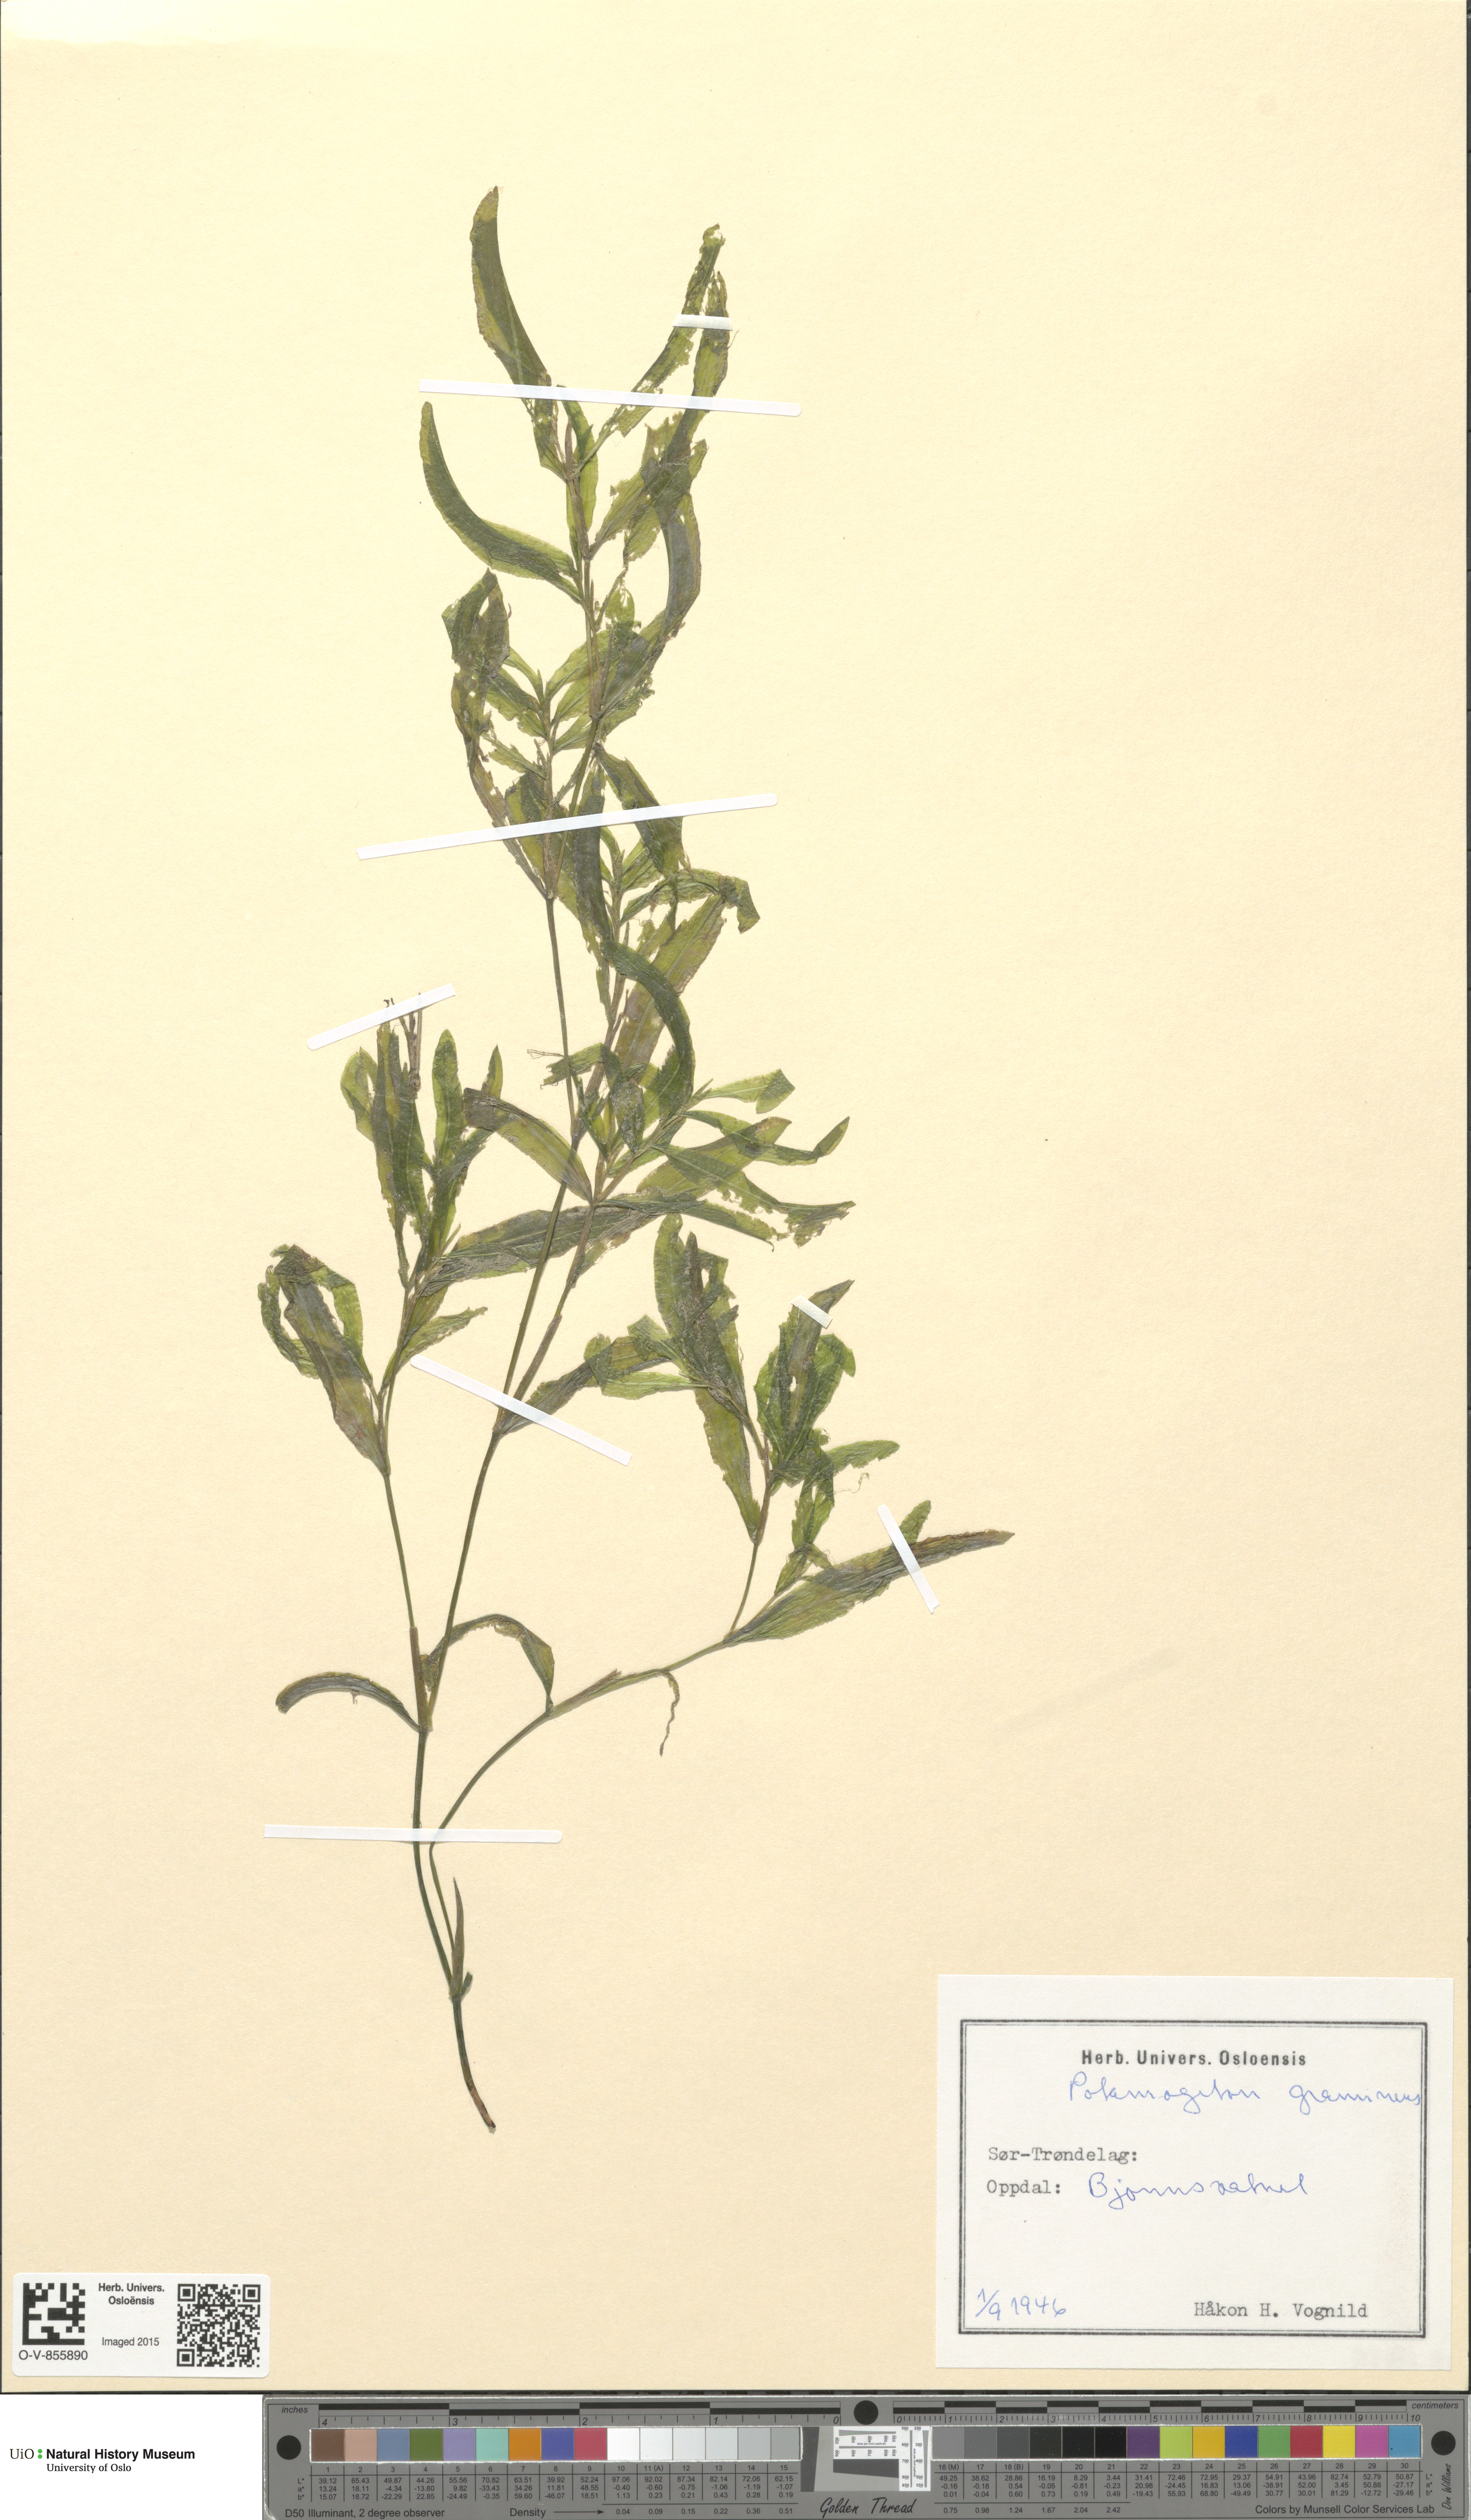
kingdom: Plantae
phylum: Tracheophyta
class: Liliopsida
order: Alismatales
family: Potamogetonaceae
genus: Potamogeton
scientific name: Potamogeton gramineus
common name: Various-leaved pondweed
